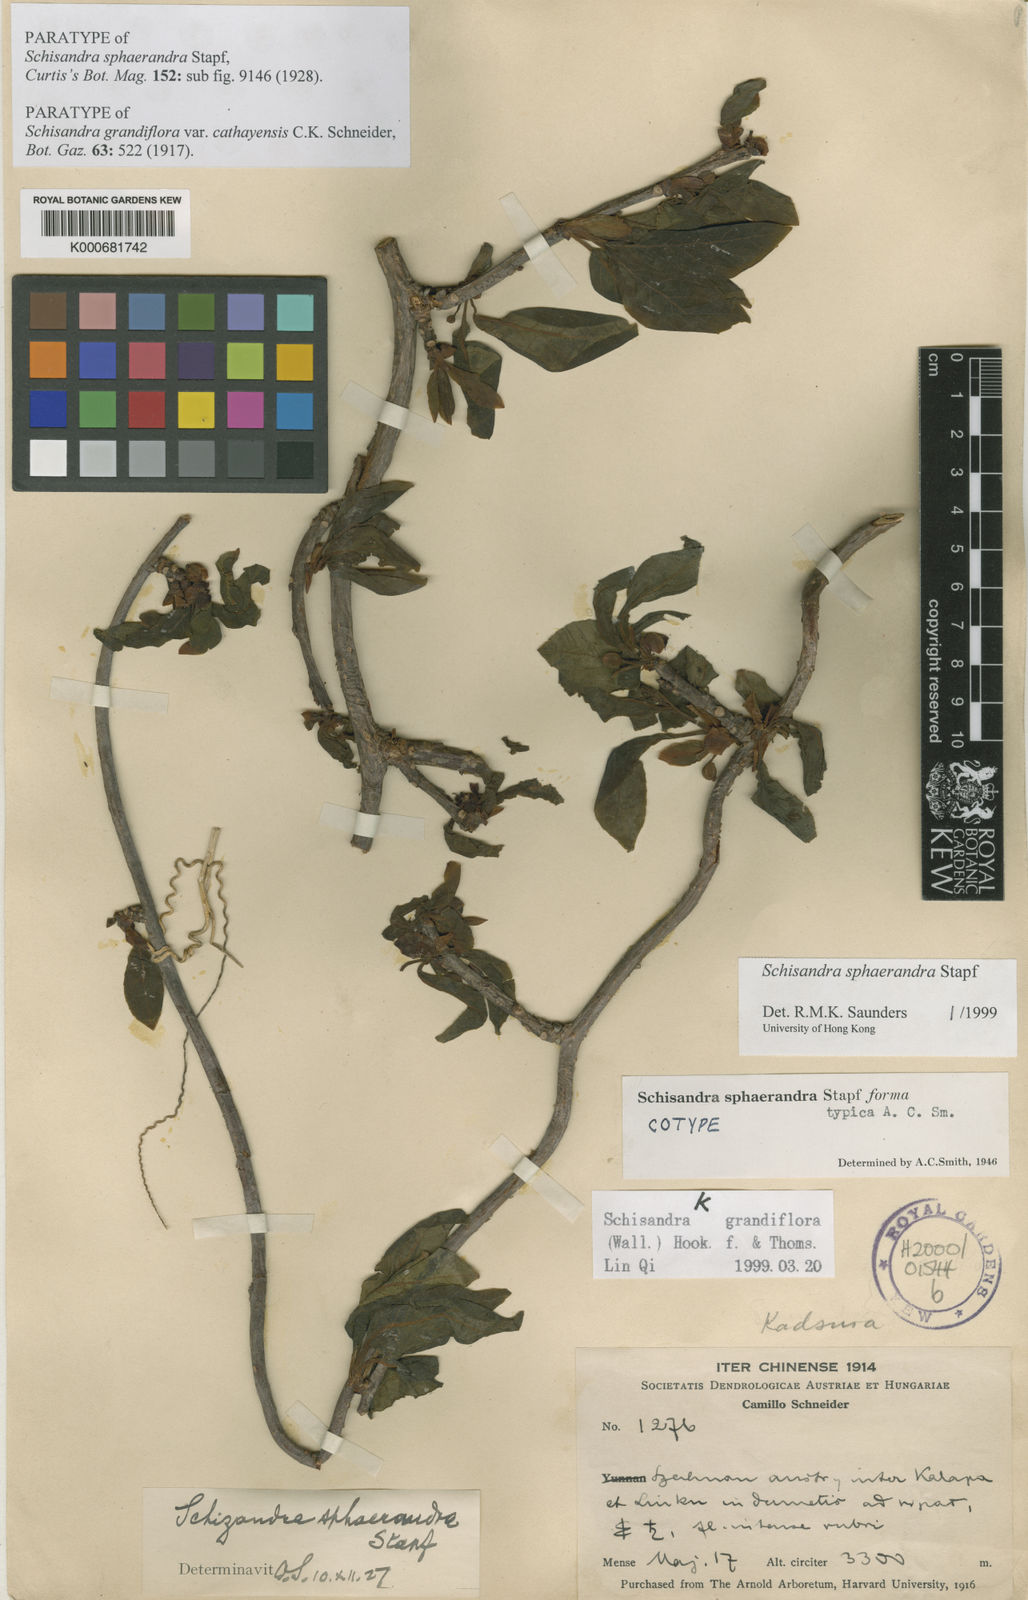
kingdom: Plantae
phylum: Tracheophyta
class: Magnoliopsida
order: Austrobaileyales
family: Schisandraceae
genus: Schisandra
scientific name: Schisandra sphaerandra
